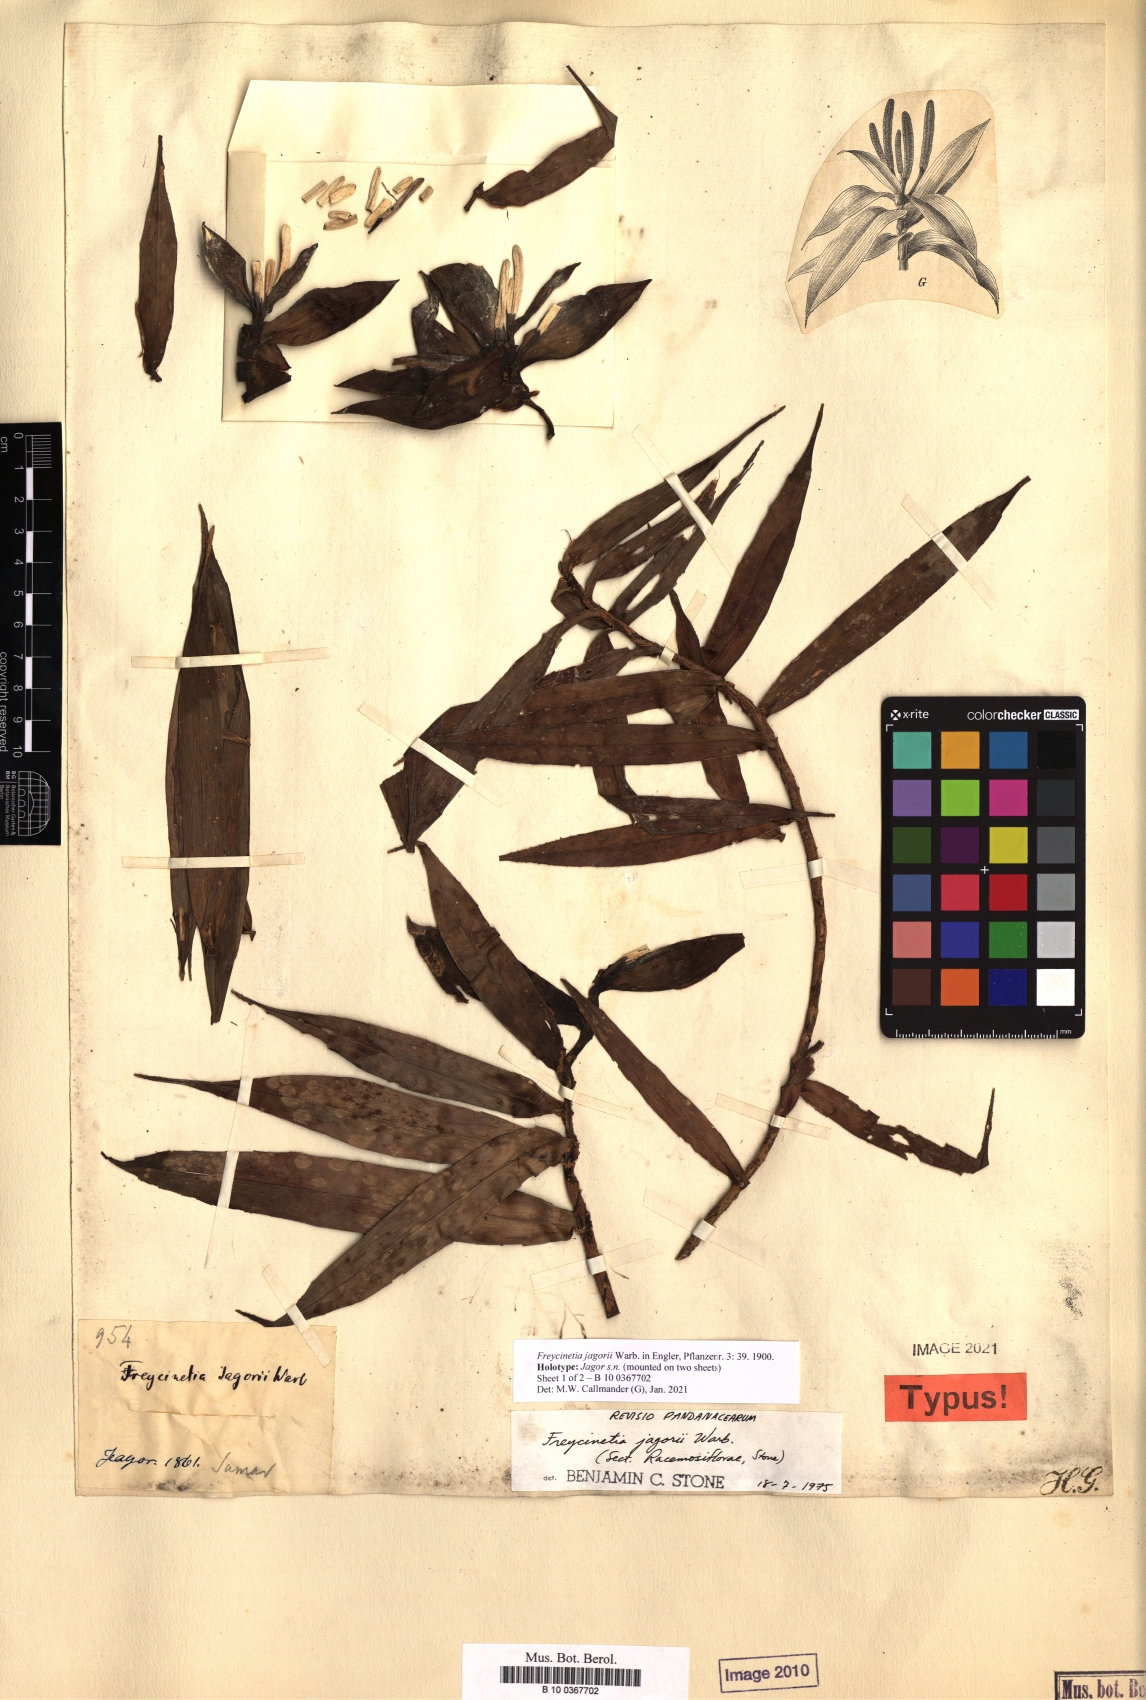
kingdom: Plantae
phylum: Tracheophyta
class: Liliopsida
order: Pandanales
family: Pandanaceae
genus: Freycinetia
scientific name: Freycinetia jagorii
